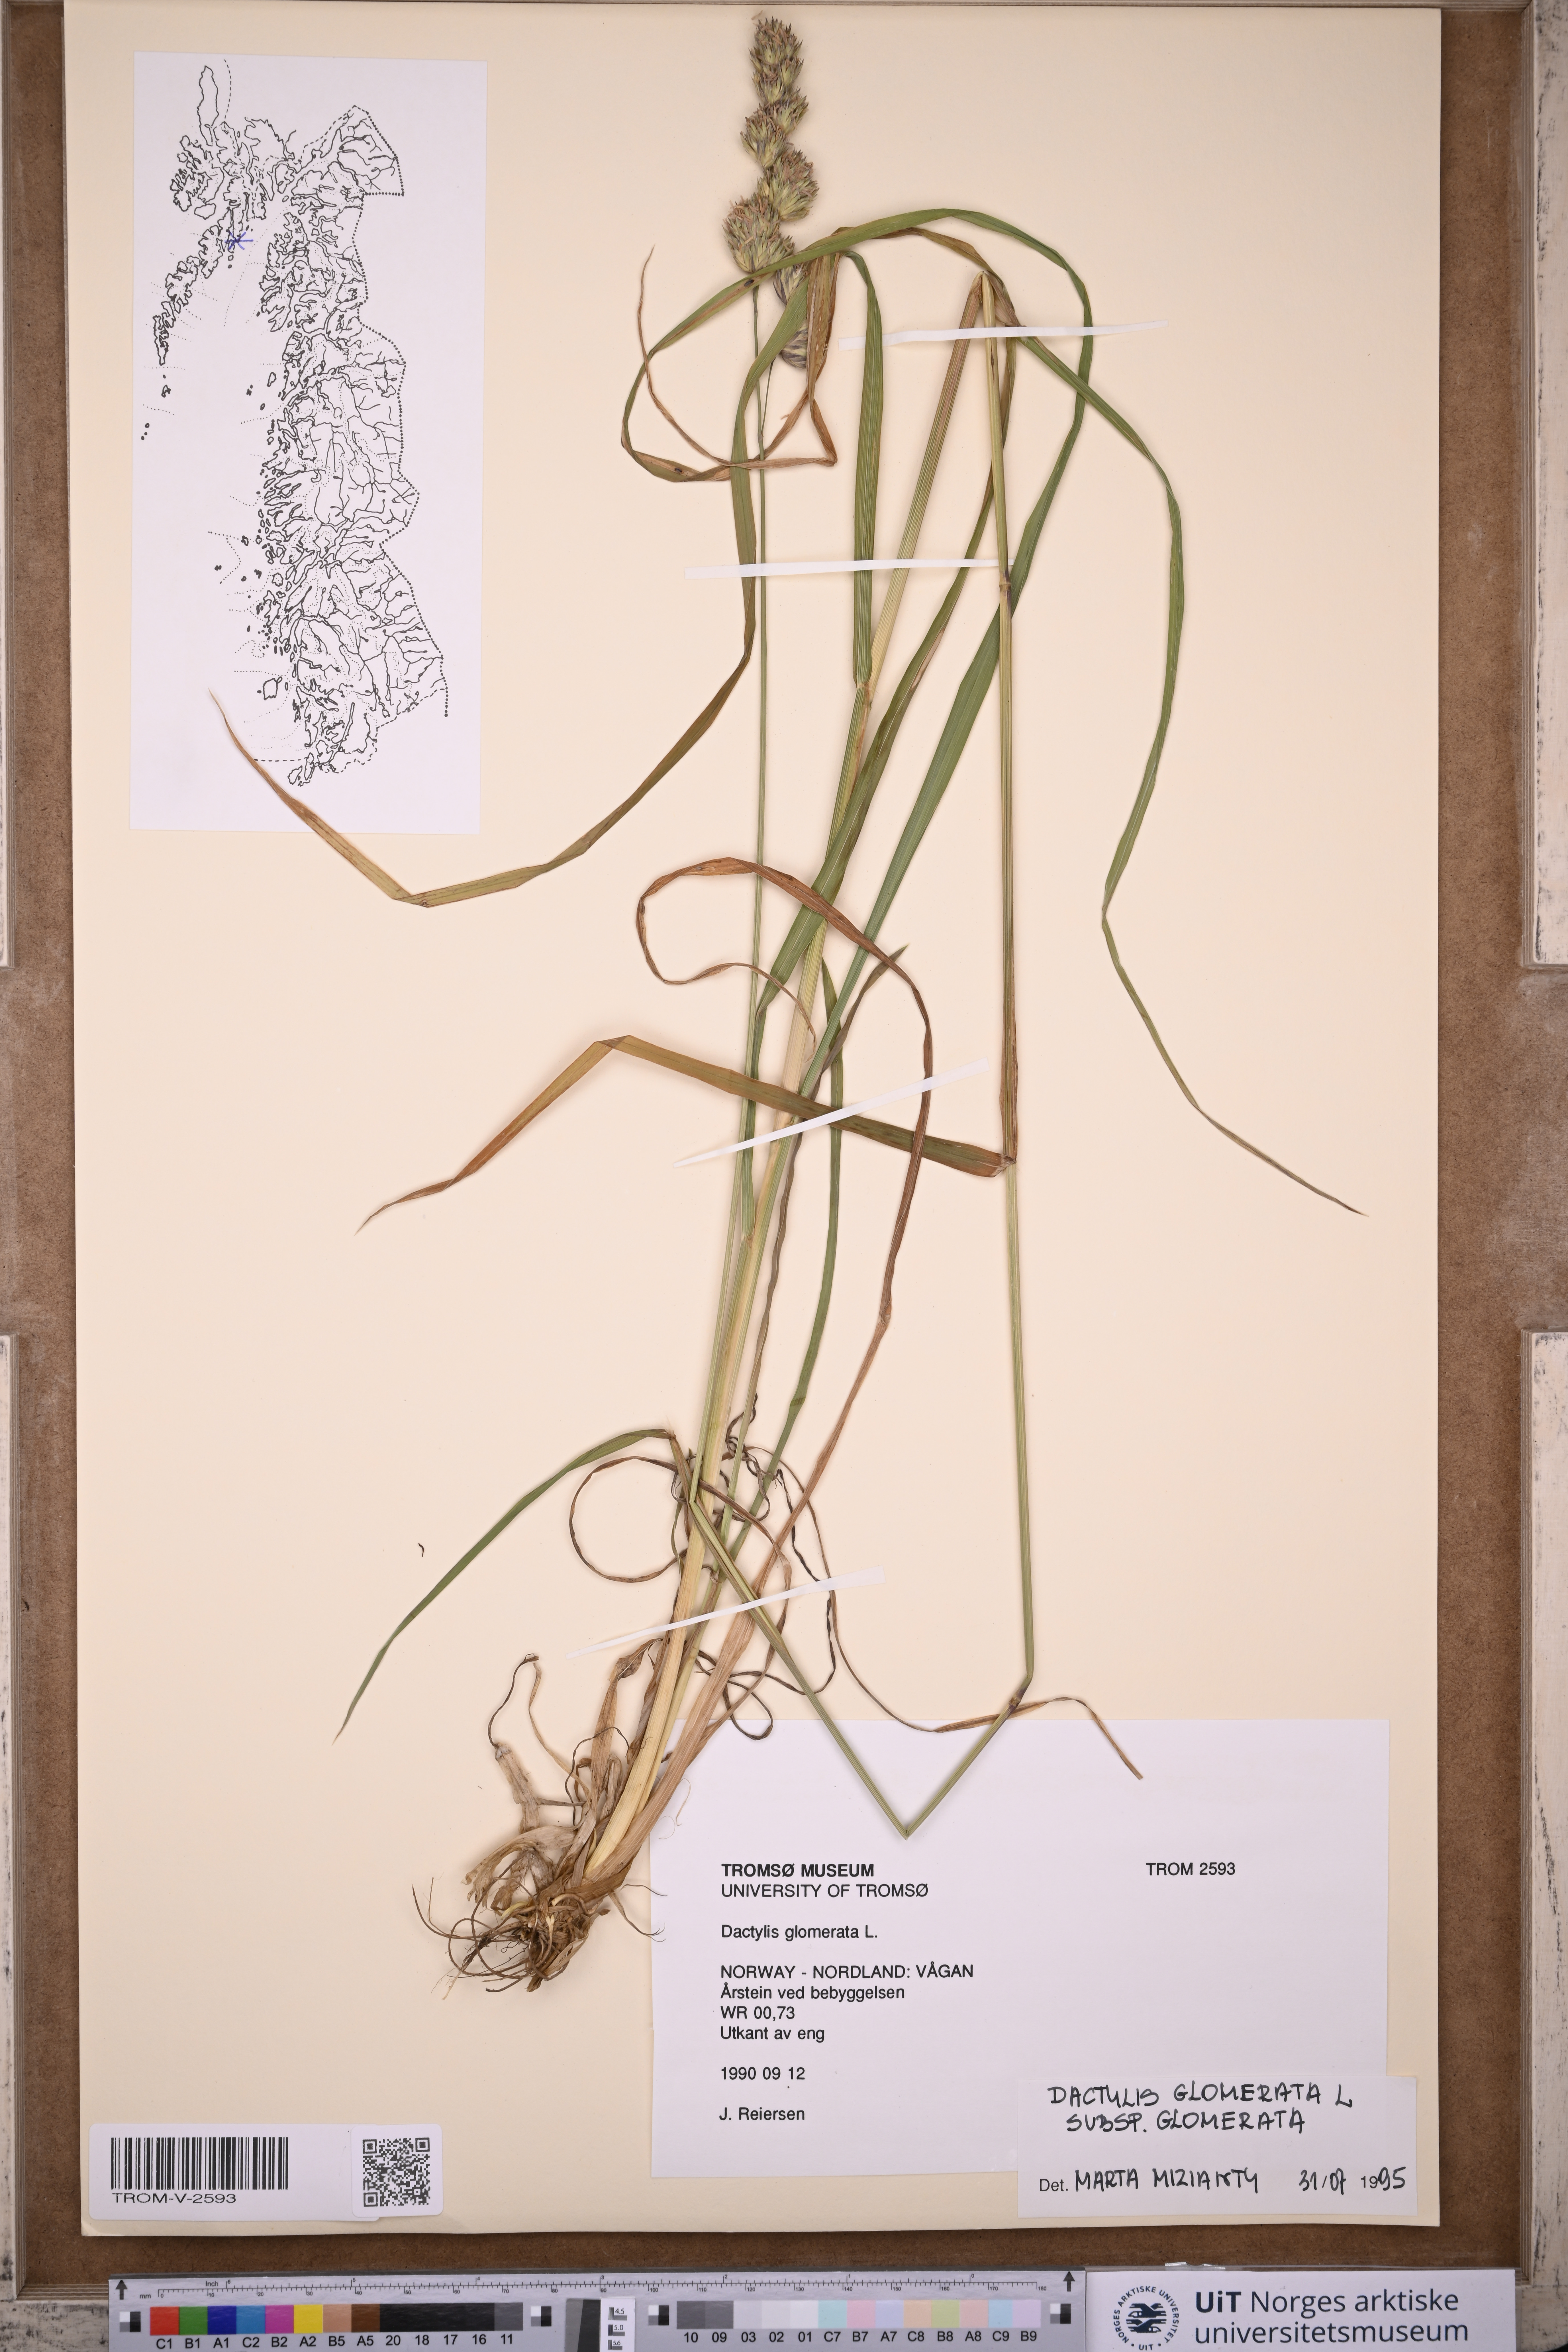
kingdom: Plantae
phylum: Tracheophyta
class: Liliopsida
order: Poales
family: Poaceae
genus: Dactylis
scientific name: Dactylis glomerata
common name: Orchardgrass
